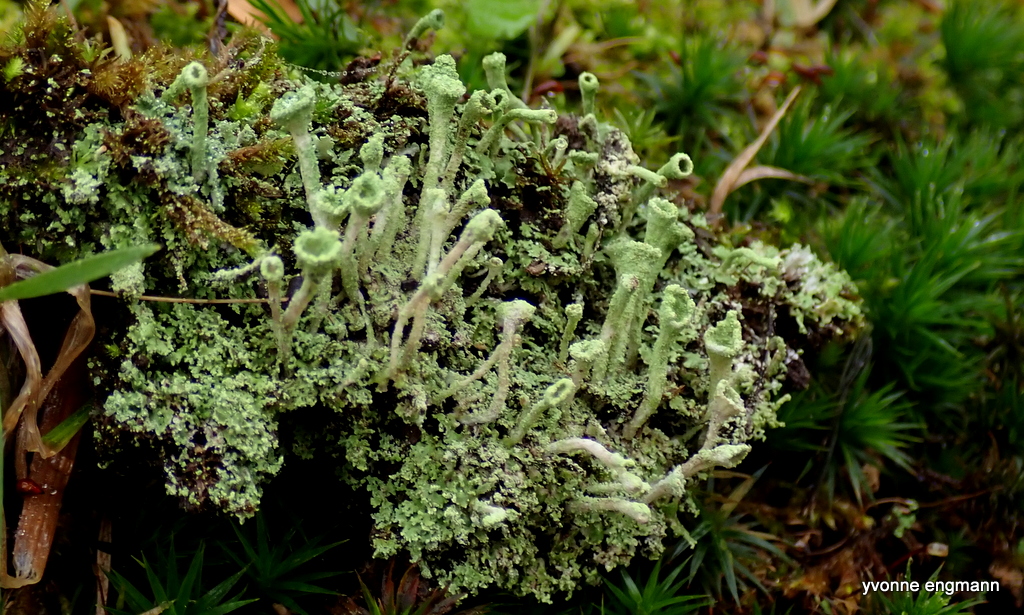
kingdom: Fungi
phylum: Ascomycota
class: Lecanoromycetes
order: Lecanorales
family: Cladoniaceae
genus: Cladonia
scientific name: Cladonia
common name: brungrøn bægerlav
